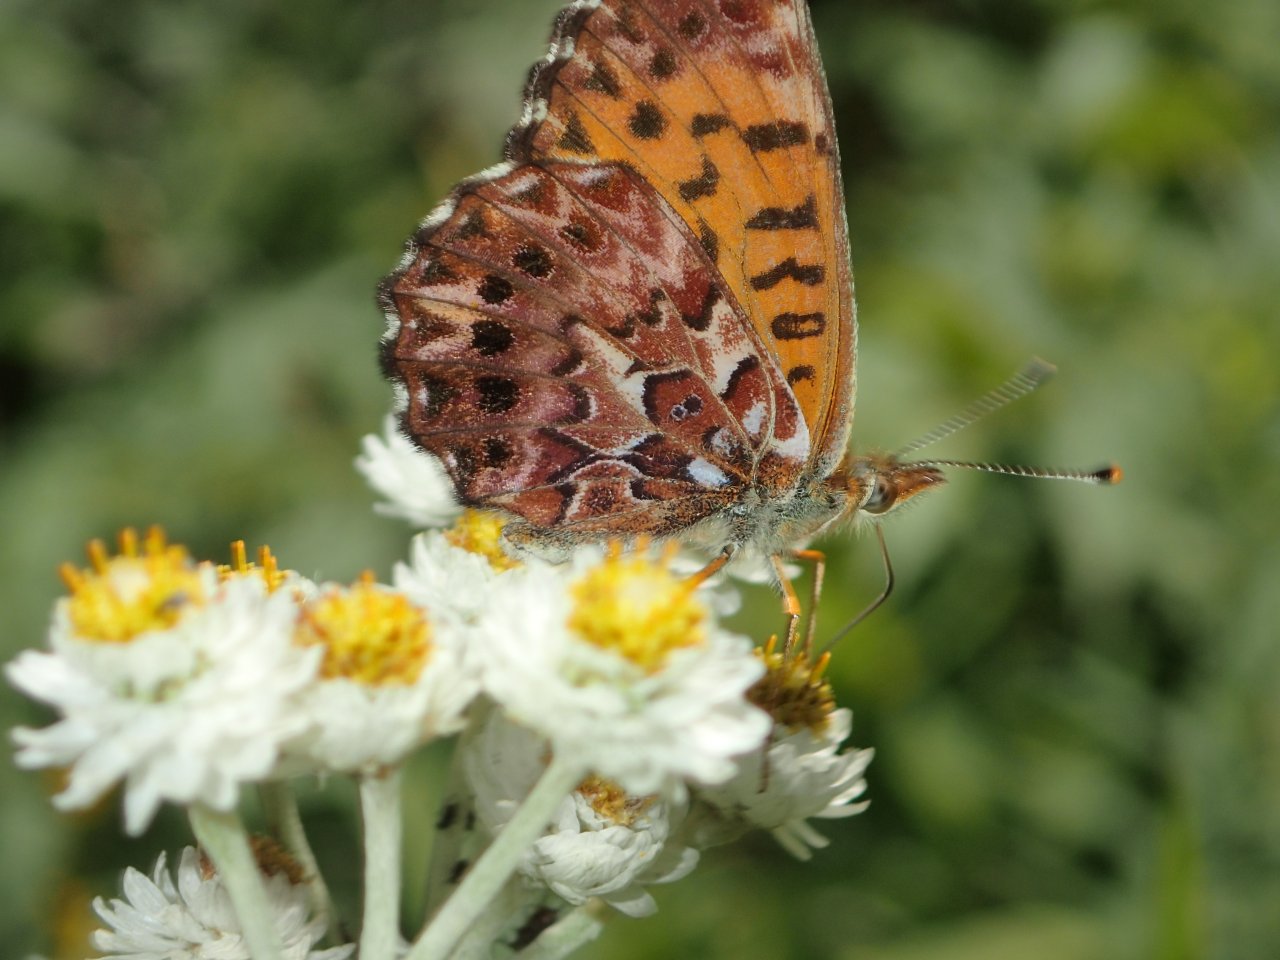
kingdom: Animalia
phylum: Arthropoda
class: Insecta
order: Lepidoptera
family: Nymphalidae
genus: Boloria
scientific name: Boloria chariclea
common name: Arctic Fritillary
